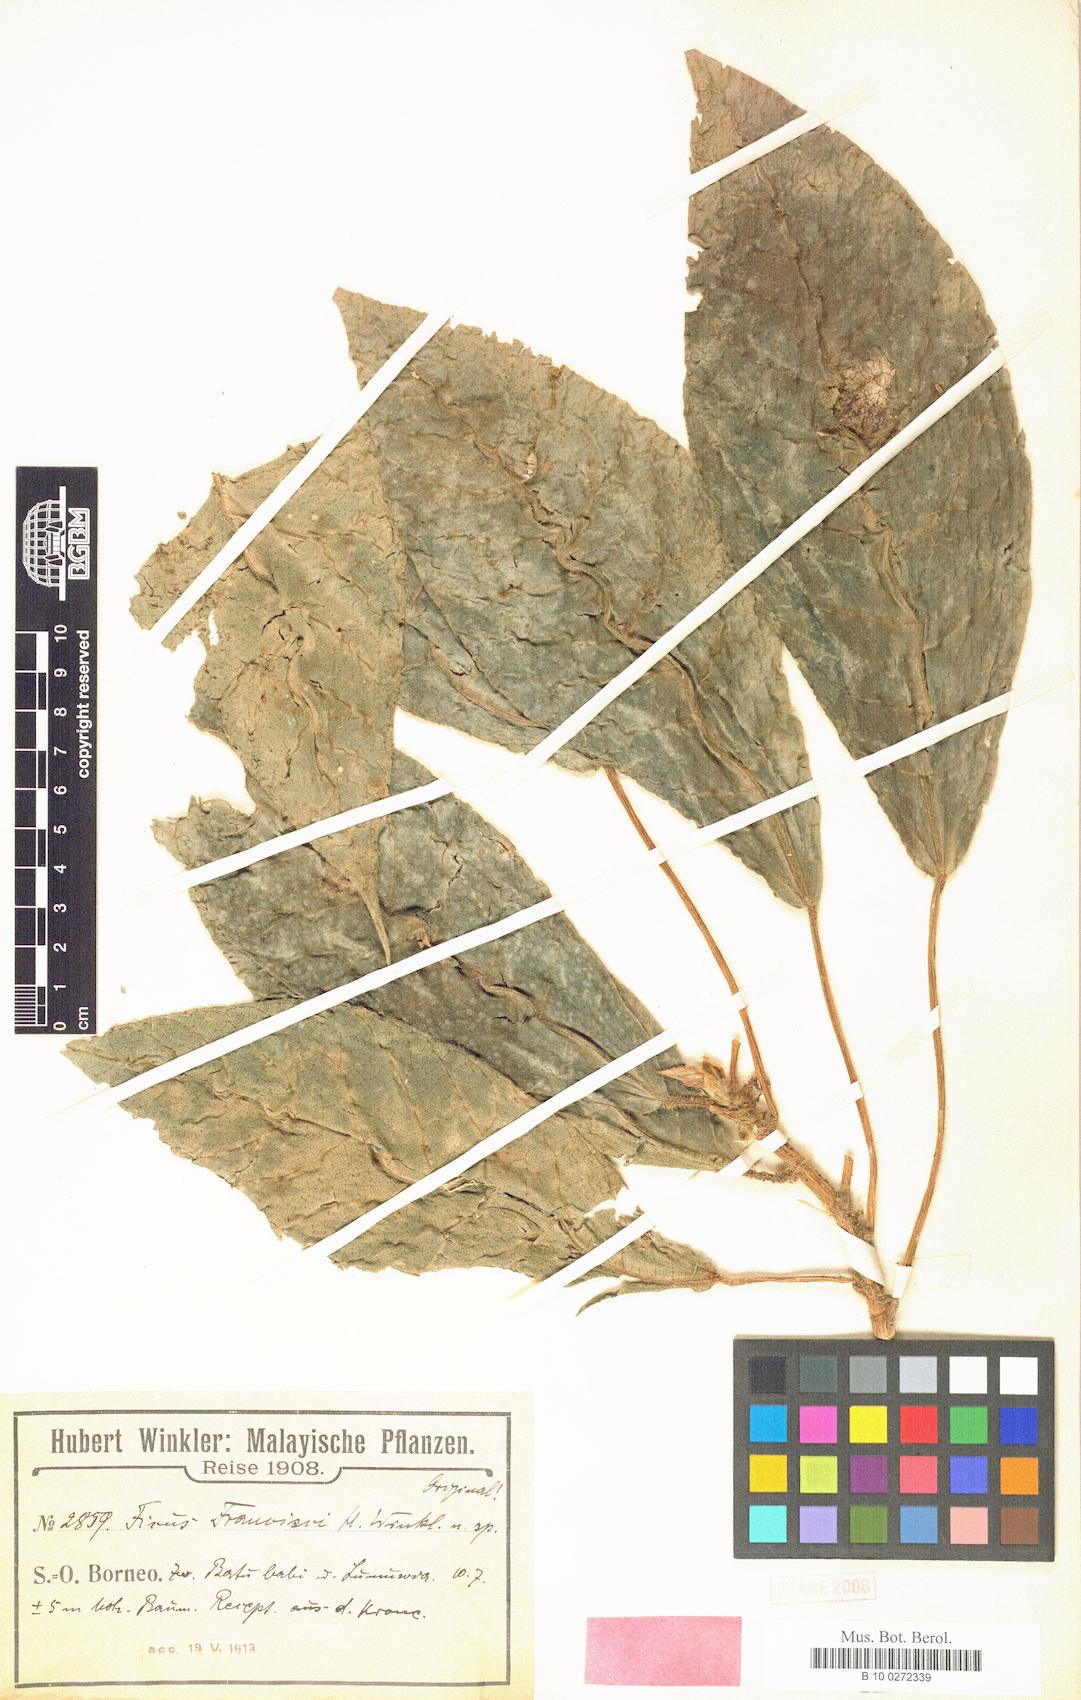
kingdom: Plantae
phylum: Tracheophyta
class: Magnoliopsida
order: Rosales
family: Moraceae
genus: Ficus
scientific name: Ficus francisci
